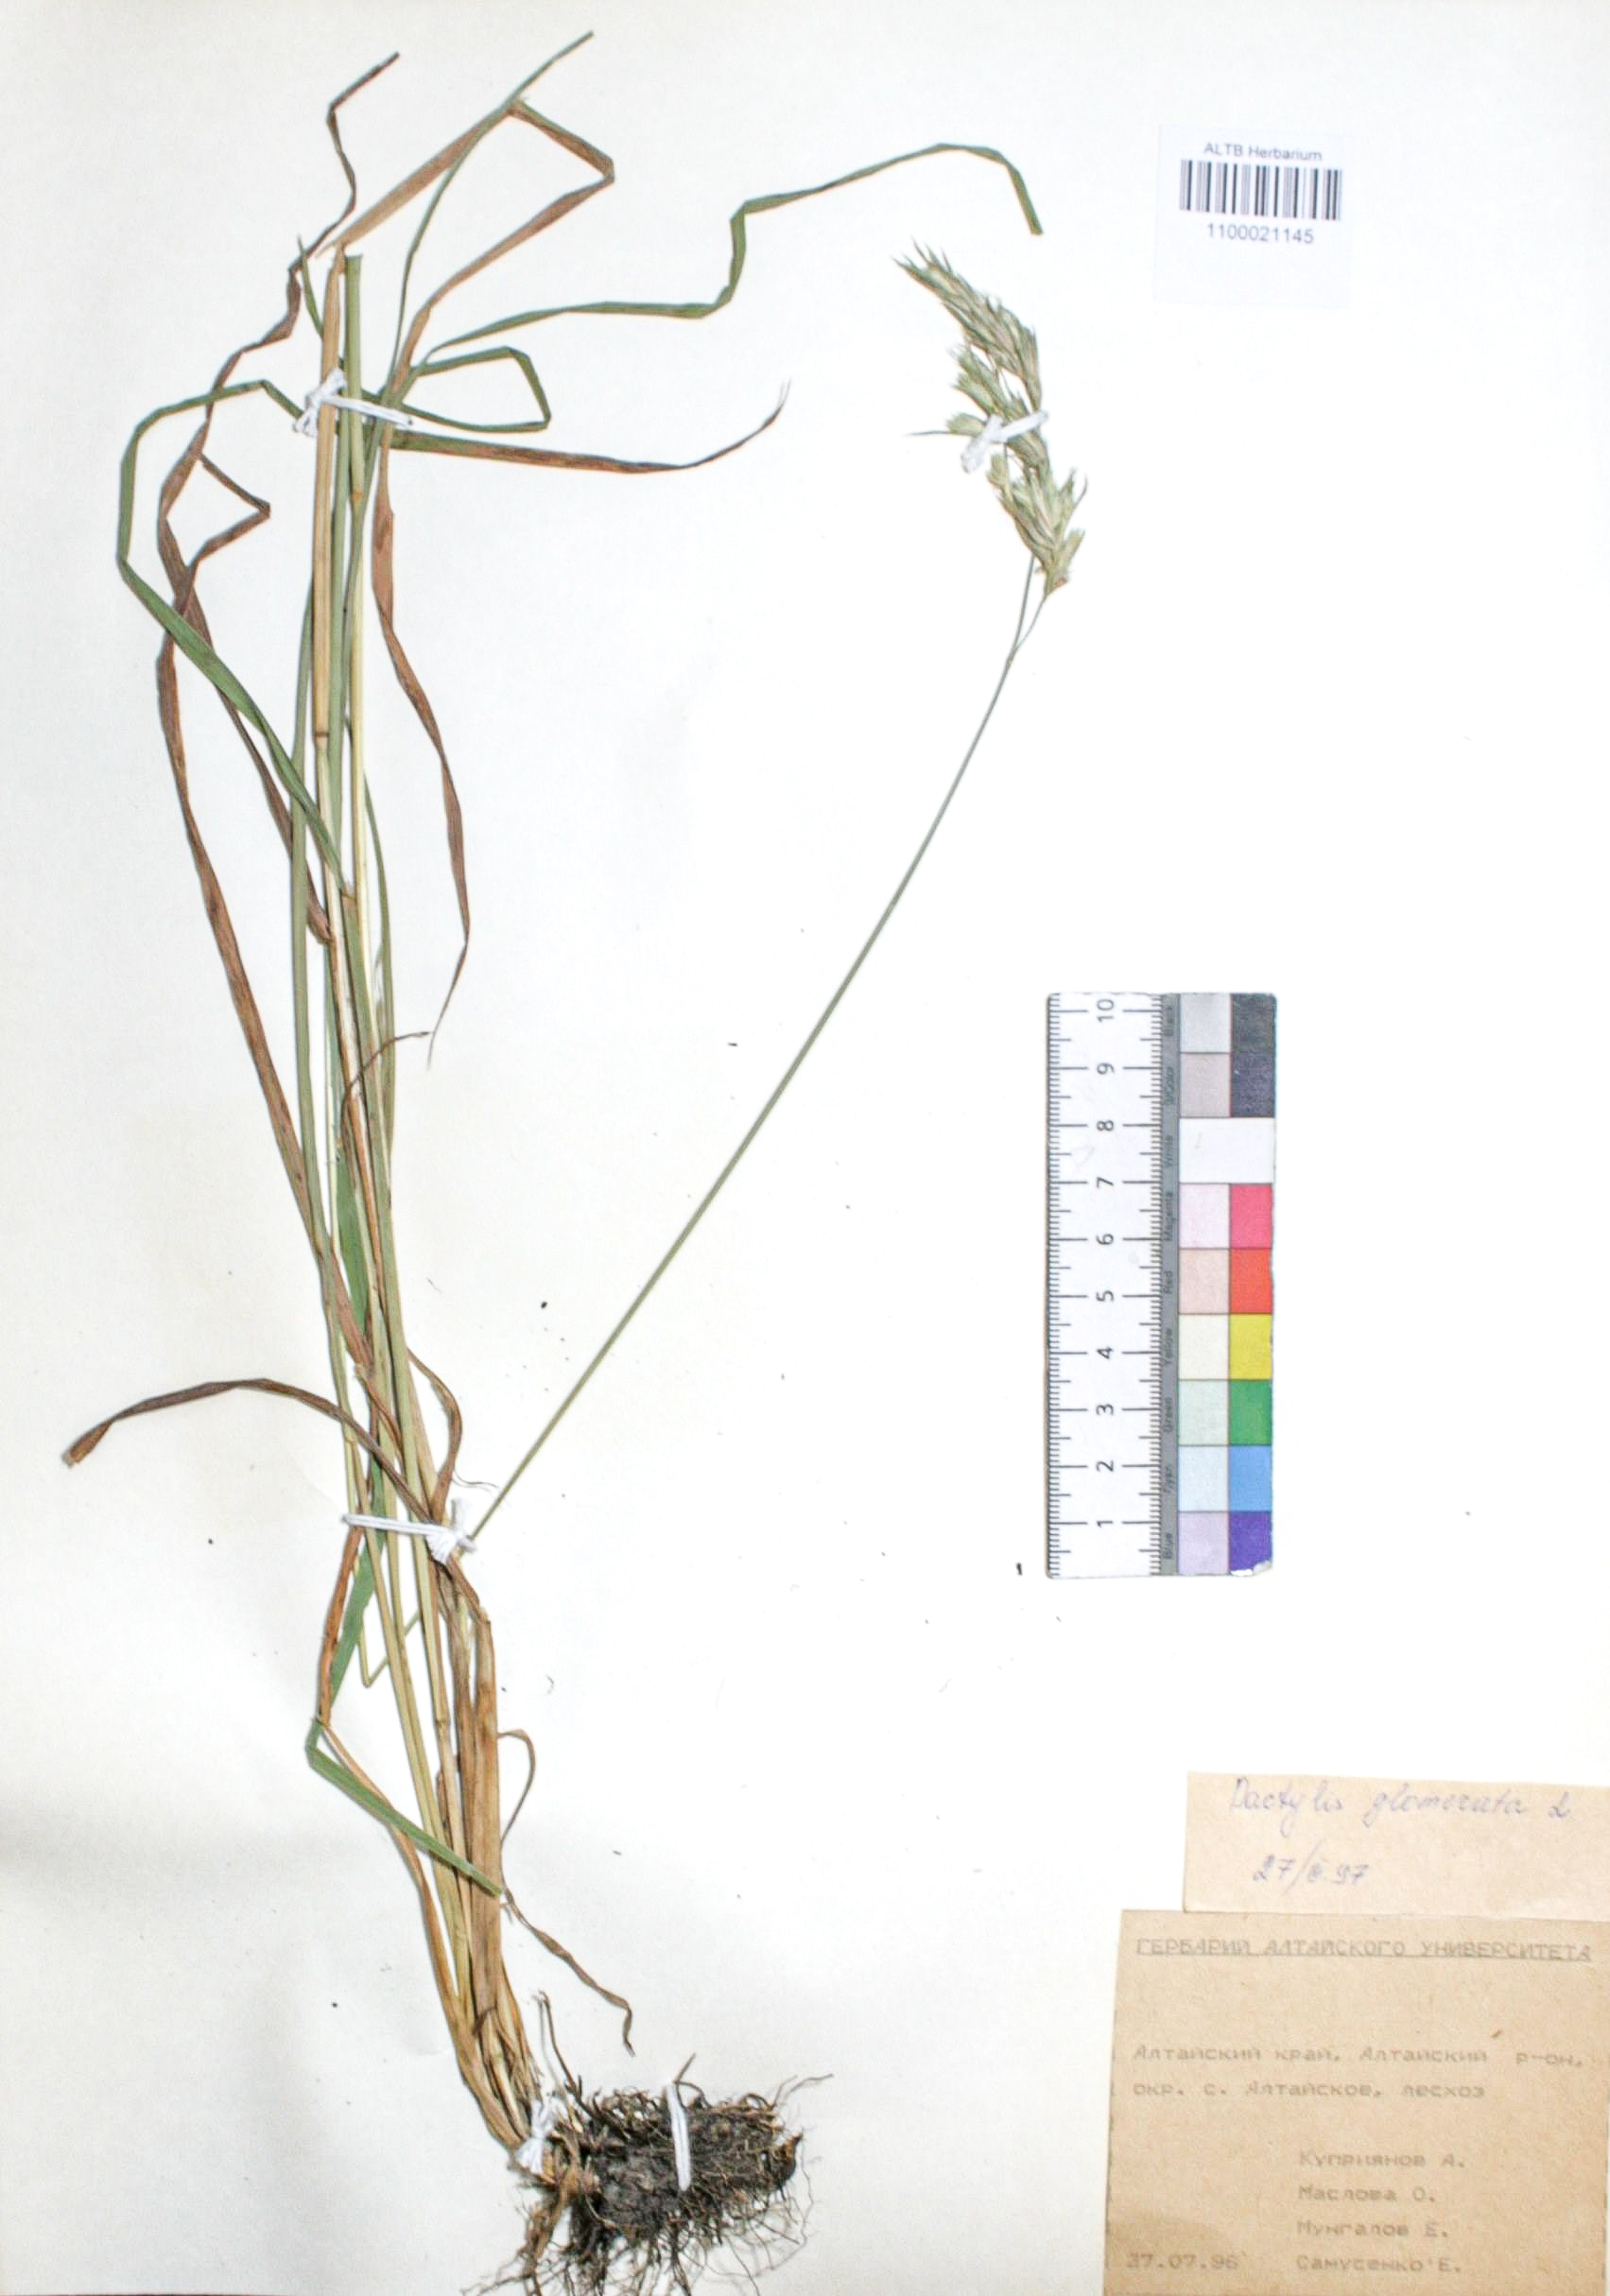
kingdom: Plantae
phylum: Tracheophyta
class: Liliopsida
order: Poales
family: Poaceae
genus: Dactylis
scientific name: Dactylis glomerata
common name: Orchardgrass
